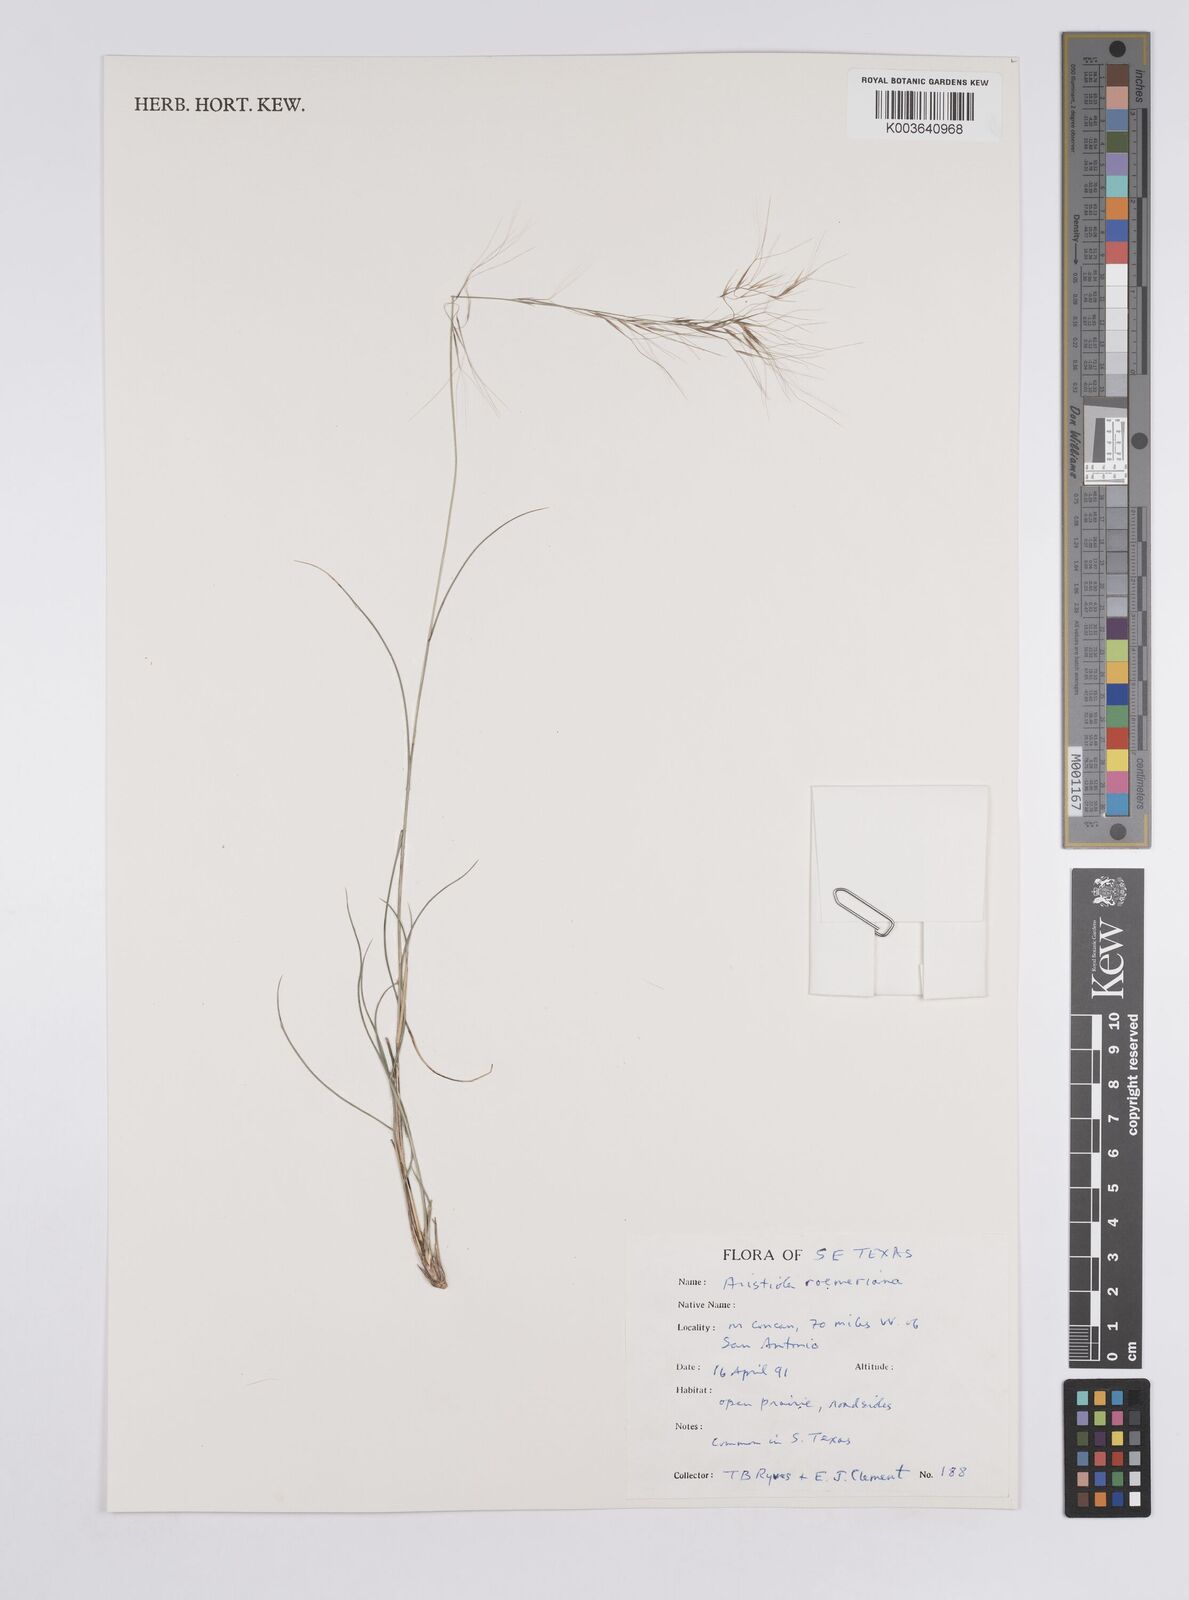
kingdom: Plantae
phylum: Tracheophyta
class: Liliopsida
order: Poales
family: Poaceae
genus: Aristida
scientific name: Aristida purpurea
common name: Purple threeawn
